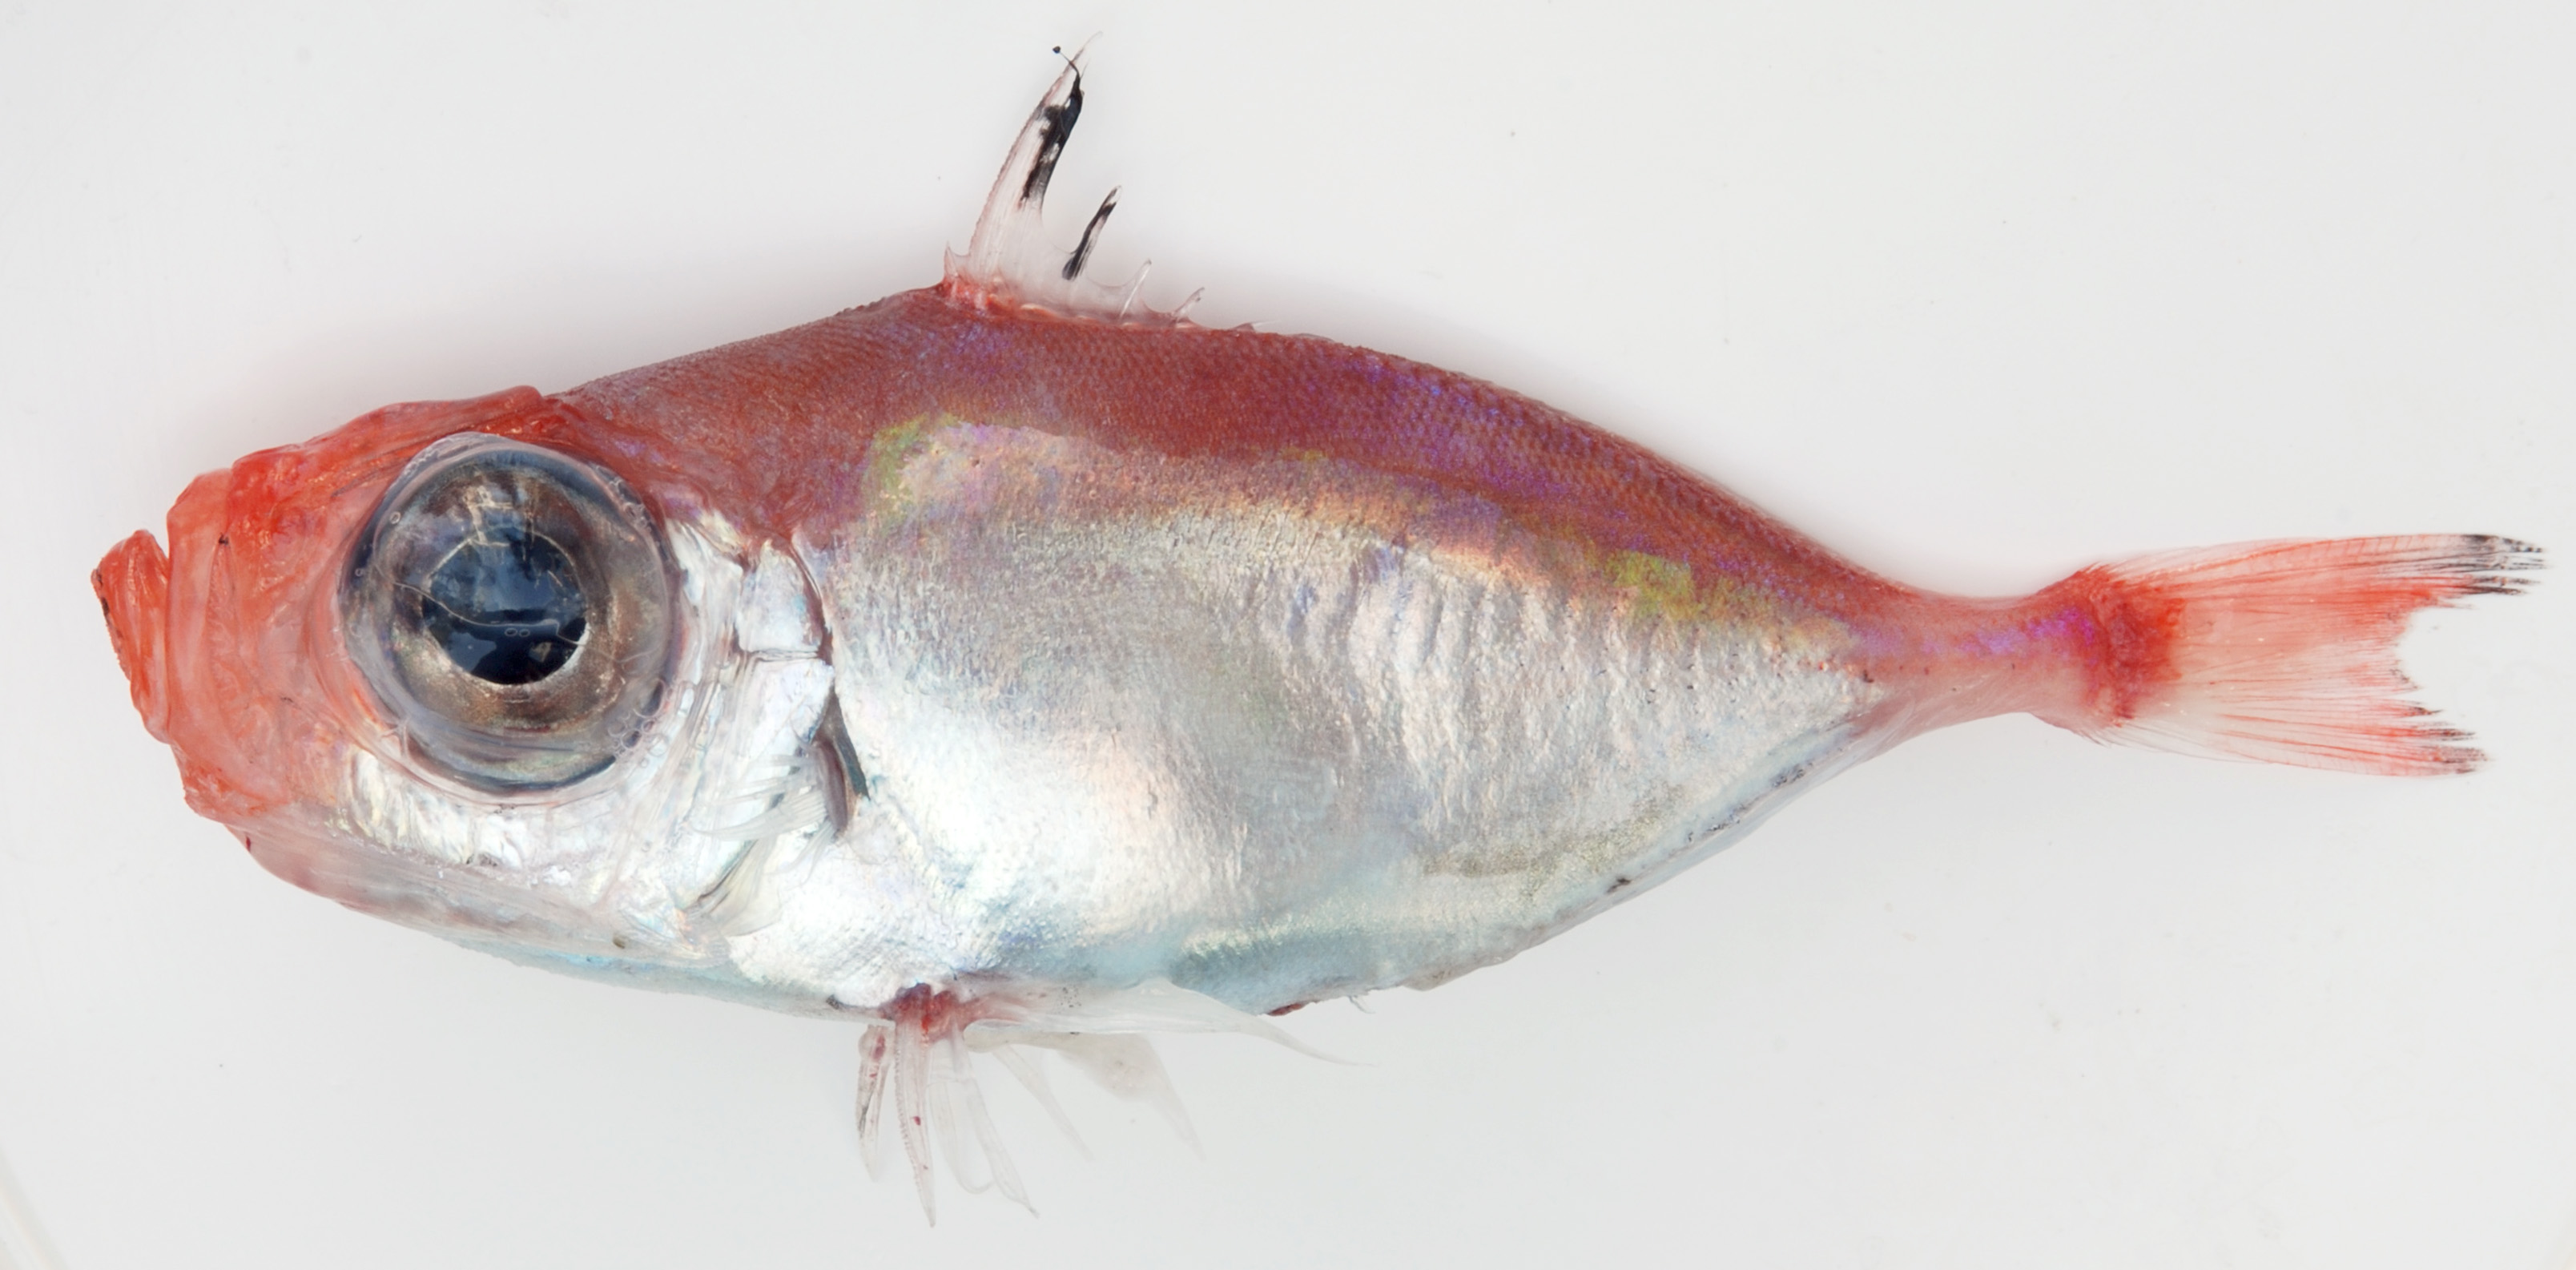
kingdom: Animalia
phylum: Chordata
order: Zeiformes
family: Zeniontidae
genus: Zenion
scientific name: Zenion hololepis
